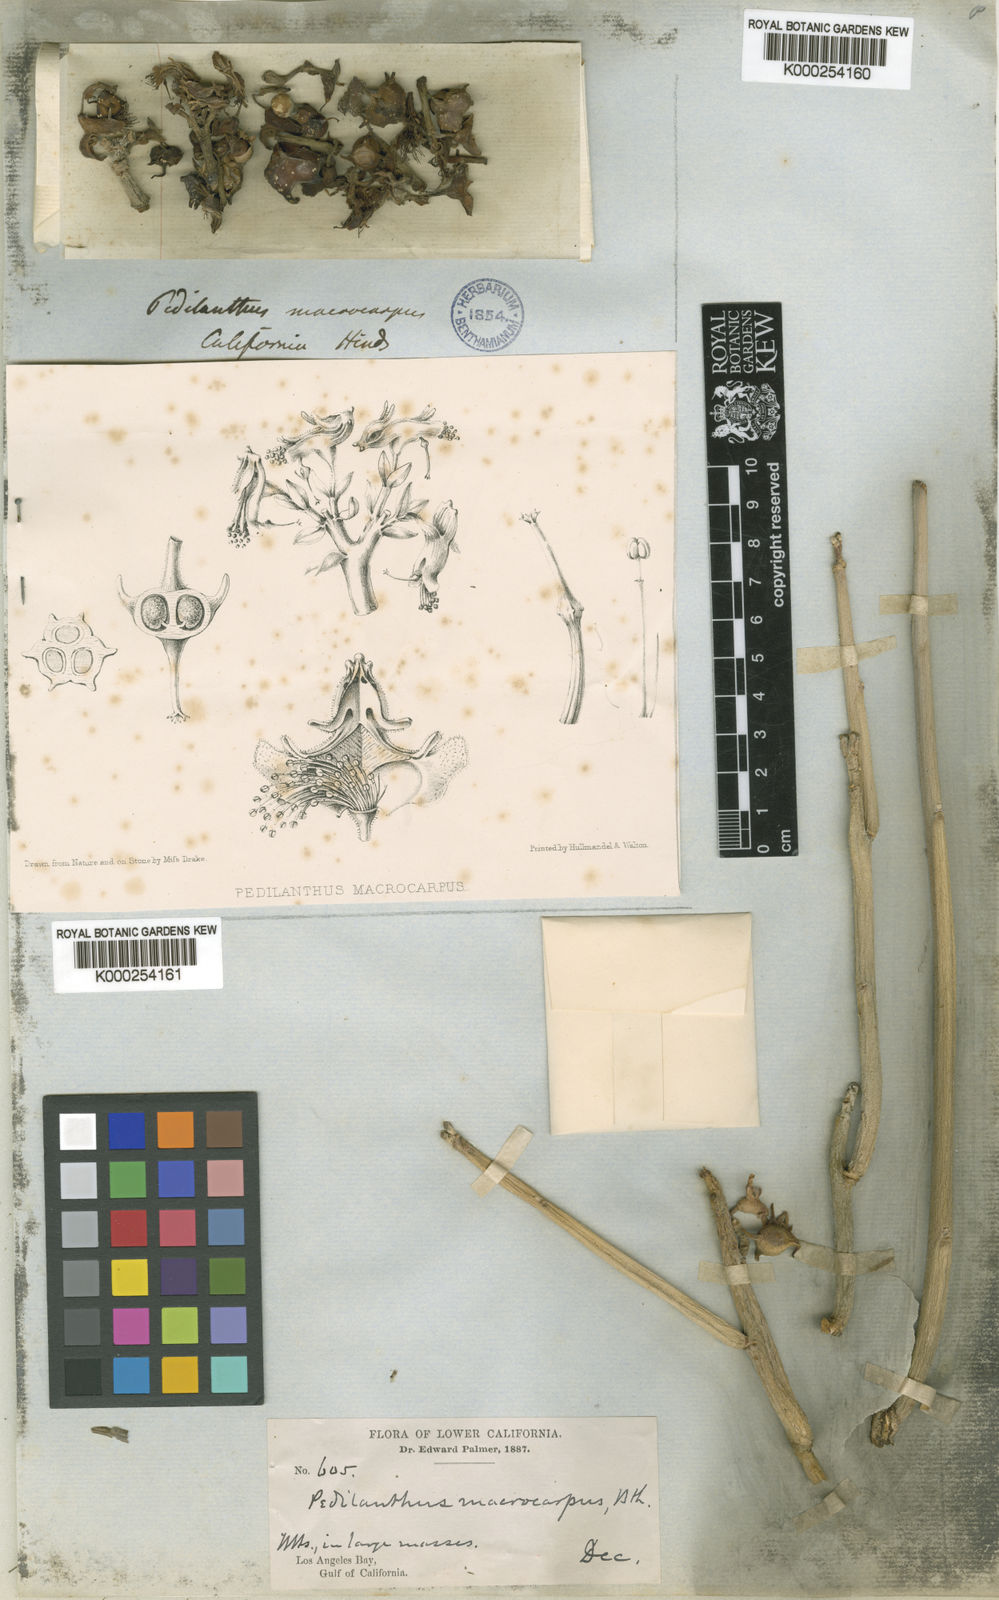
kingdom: Plantae
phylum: Tracheophyta
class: Magnoliopsida
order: Malpighiales
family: Euphorbiaceae
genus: Euphorbia
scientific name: Euphorbia lomelii
